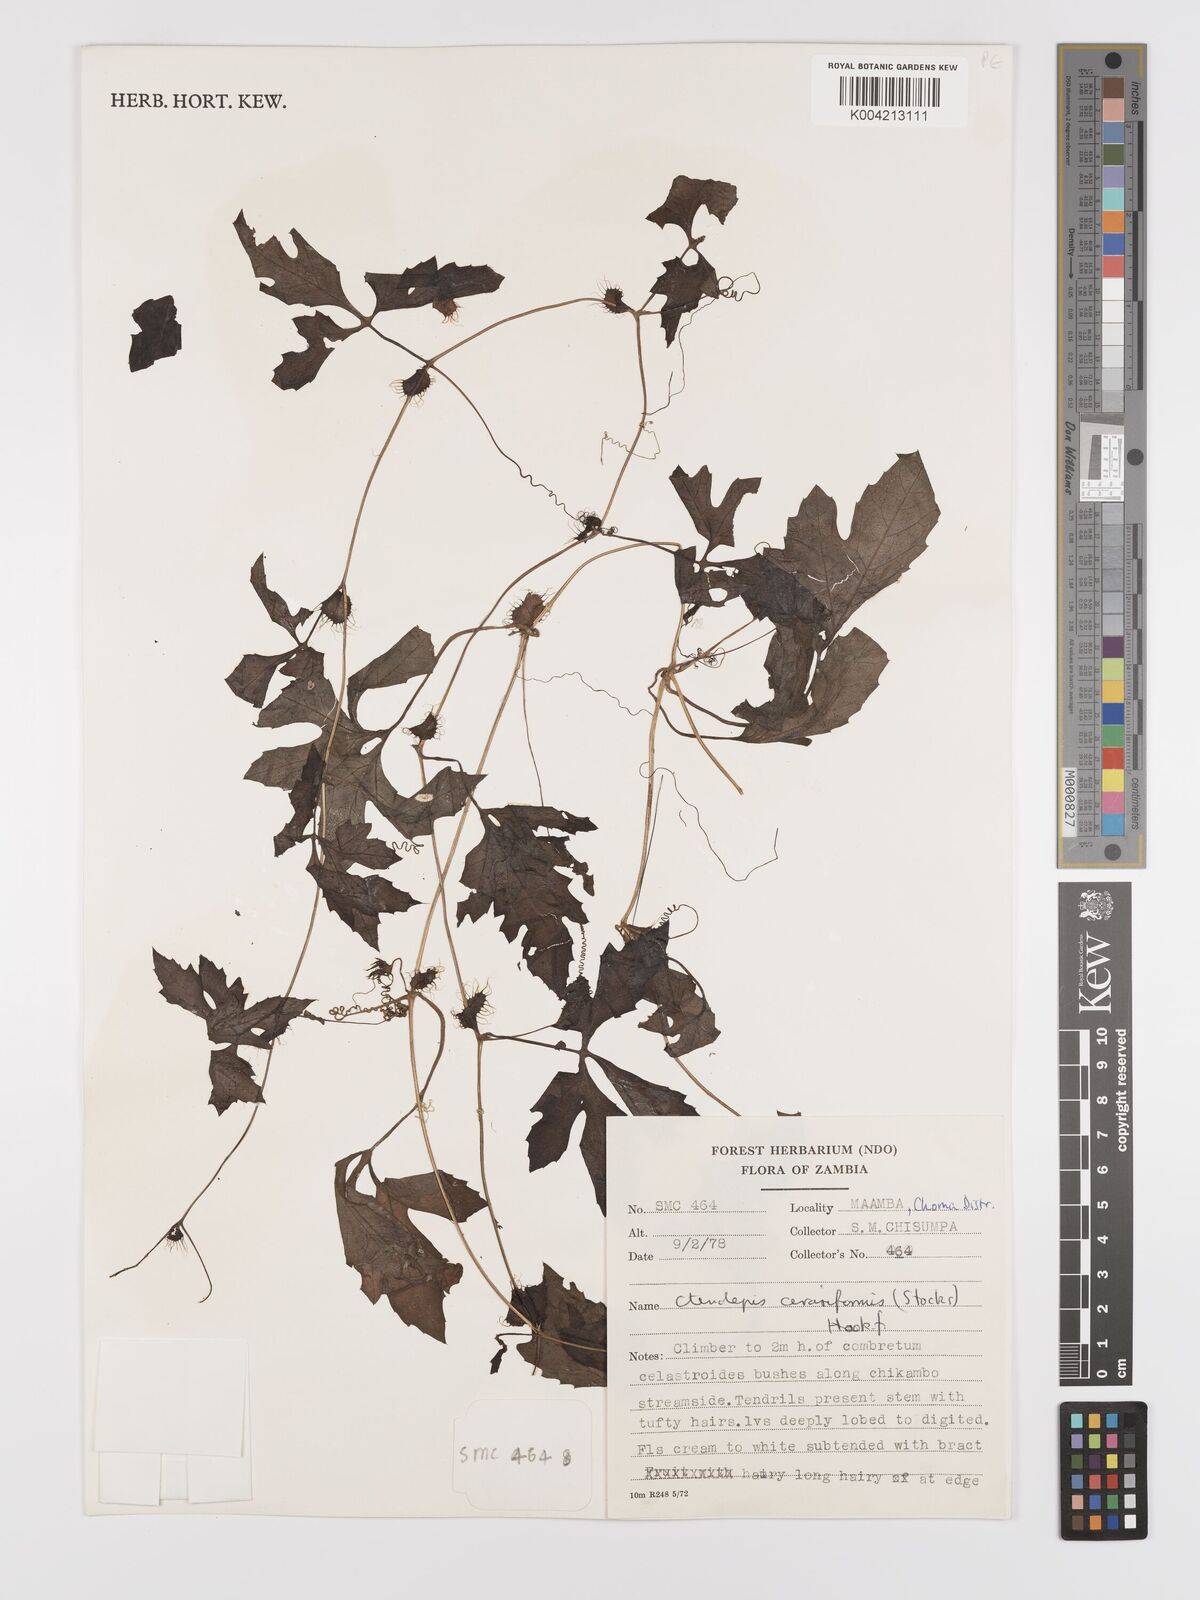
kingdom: Plantae
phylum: Tracheophyta
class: Magnoliopsida
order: Cucurbitales
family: Cucurbitaceae
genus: Blastania
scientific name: Blastania cerasiformis
